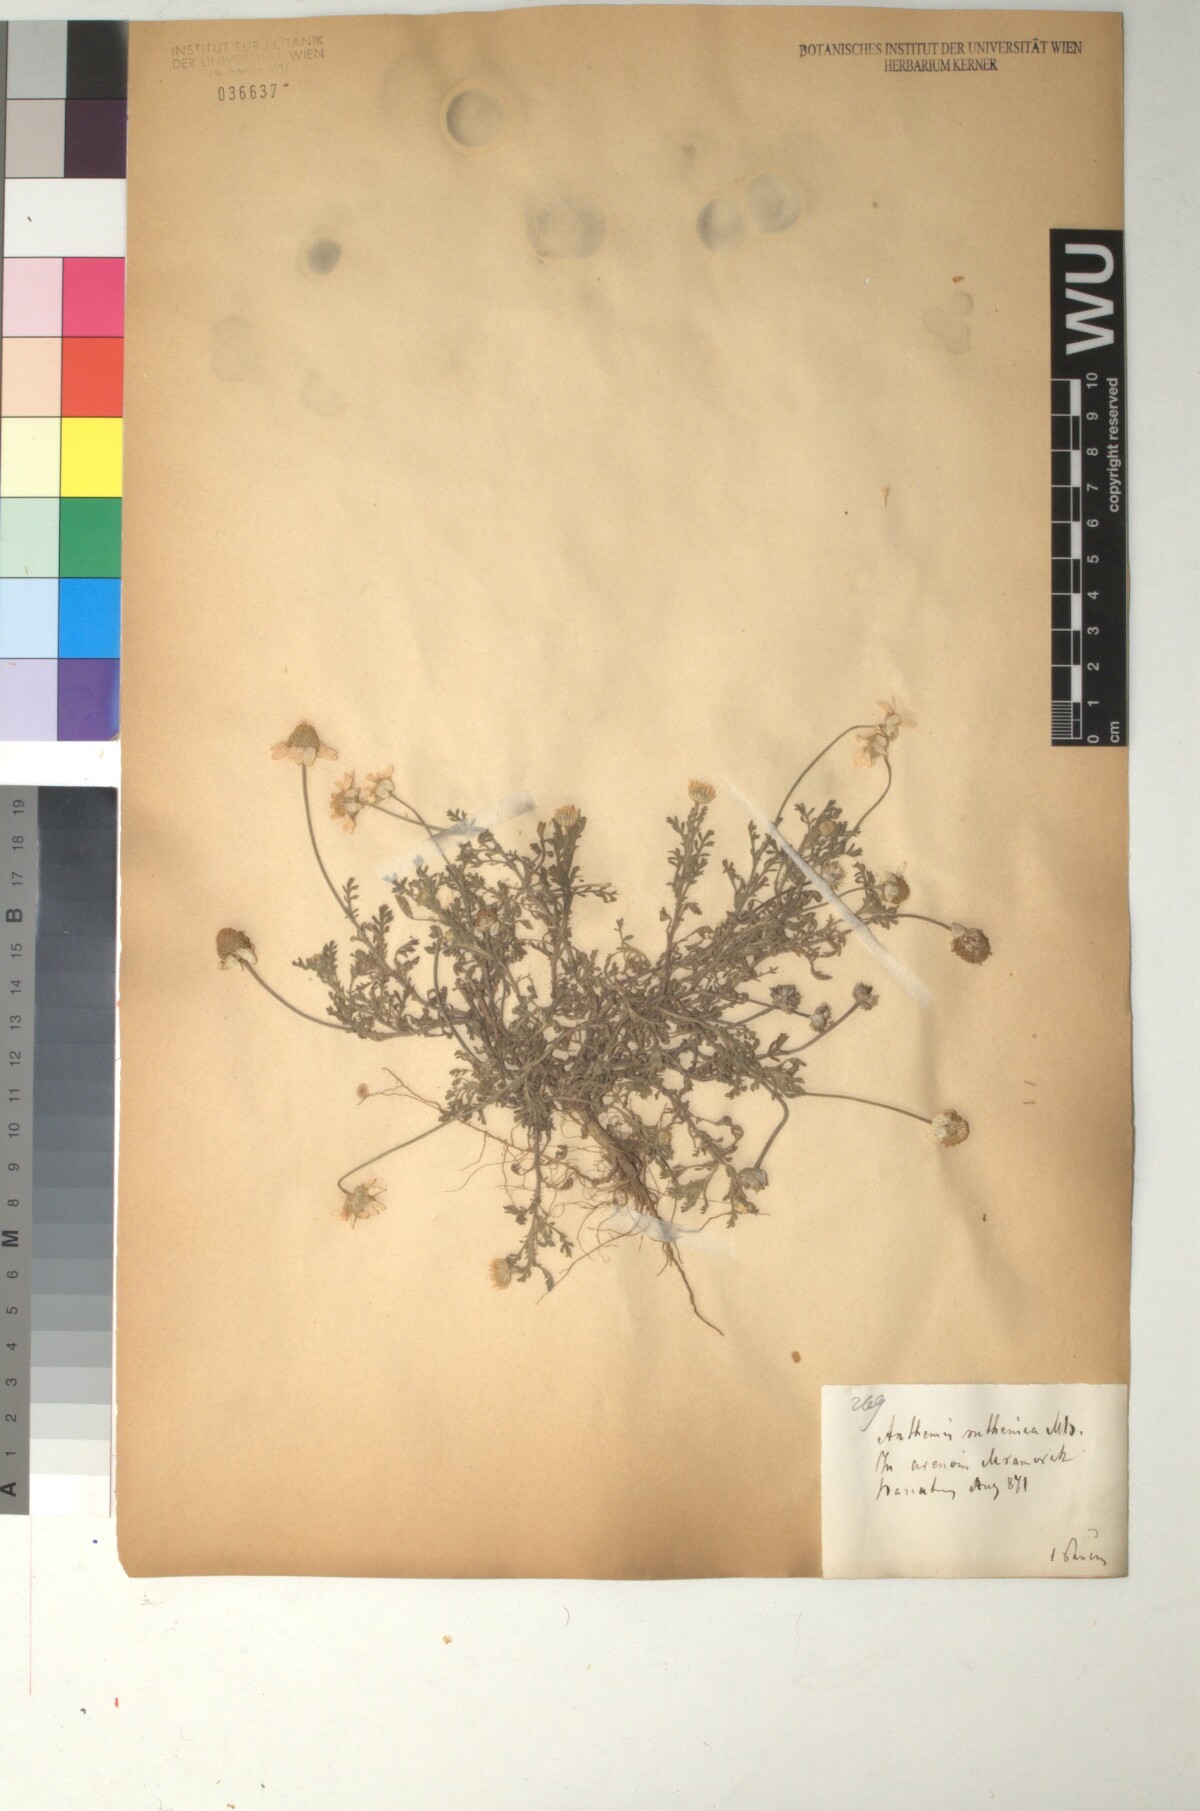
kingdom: Plantae
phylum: Tracheophyta
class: Magnoliopsida
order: Asterales
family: Asteraceae
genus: Anthemis
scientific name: Anthemis ruthenica
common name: Eastern chamomile
